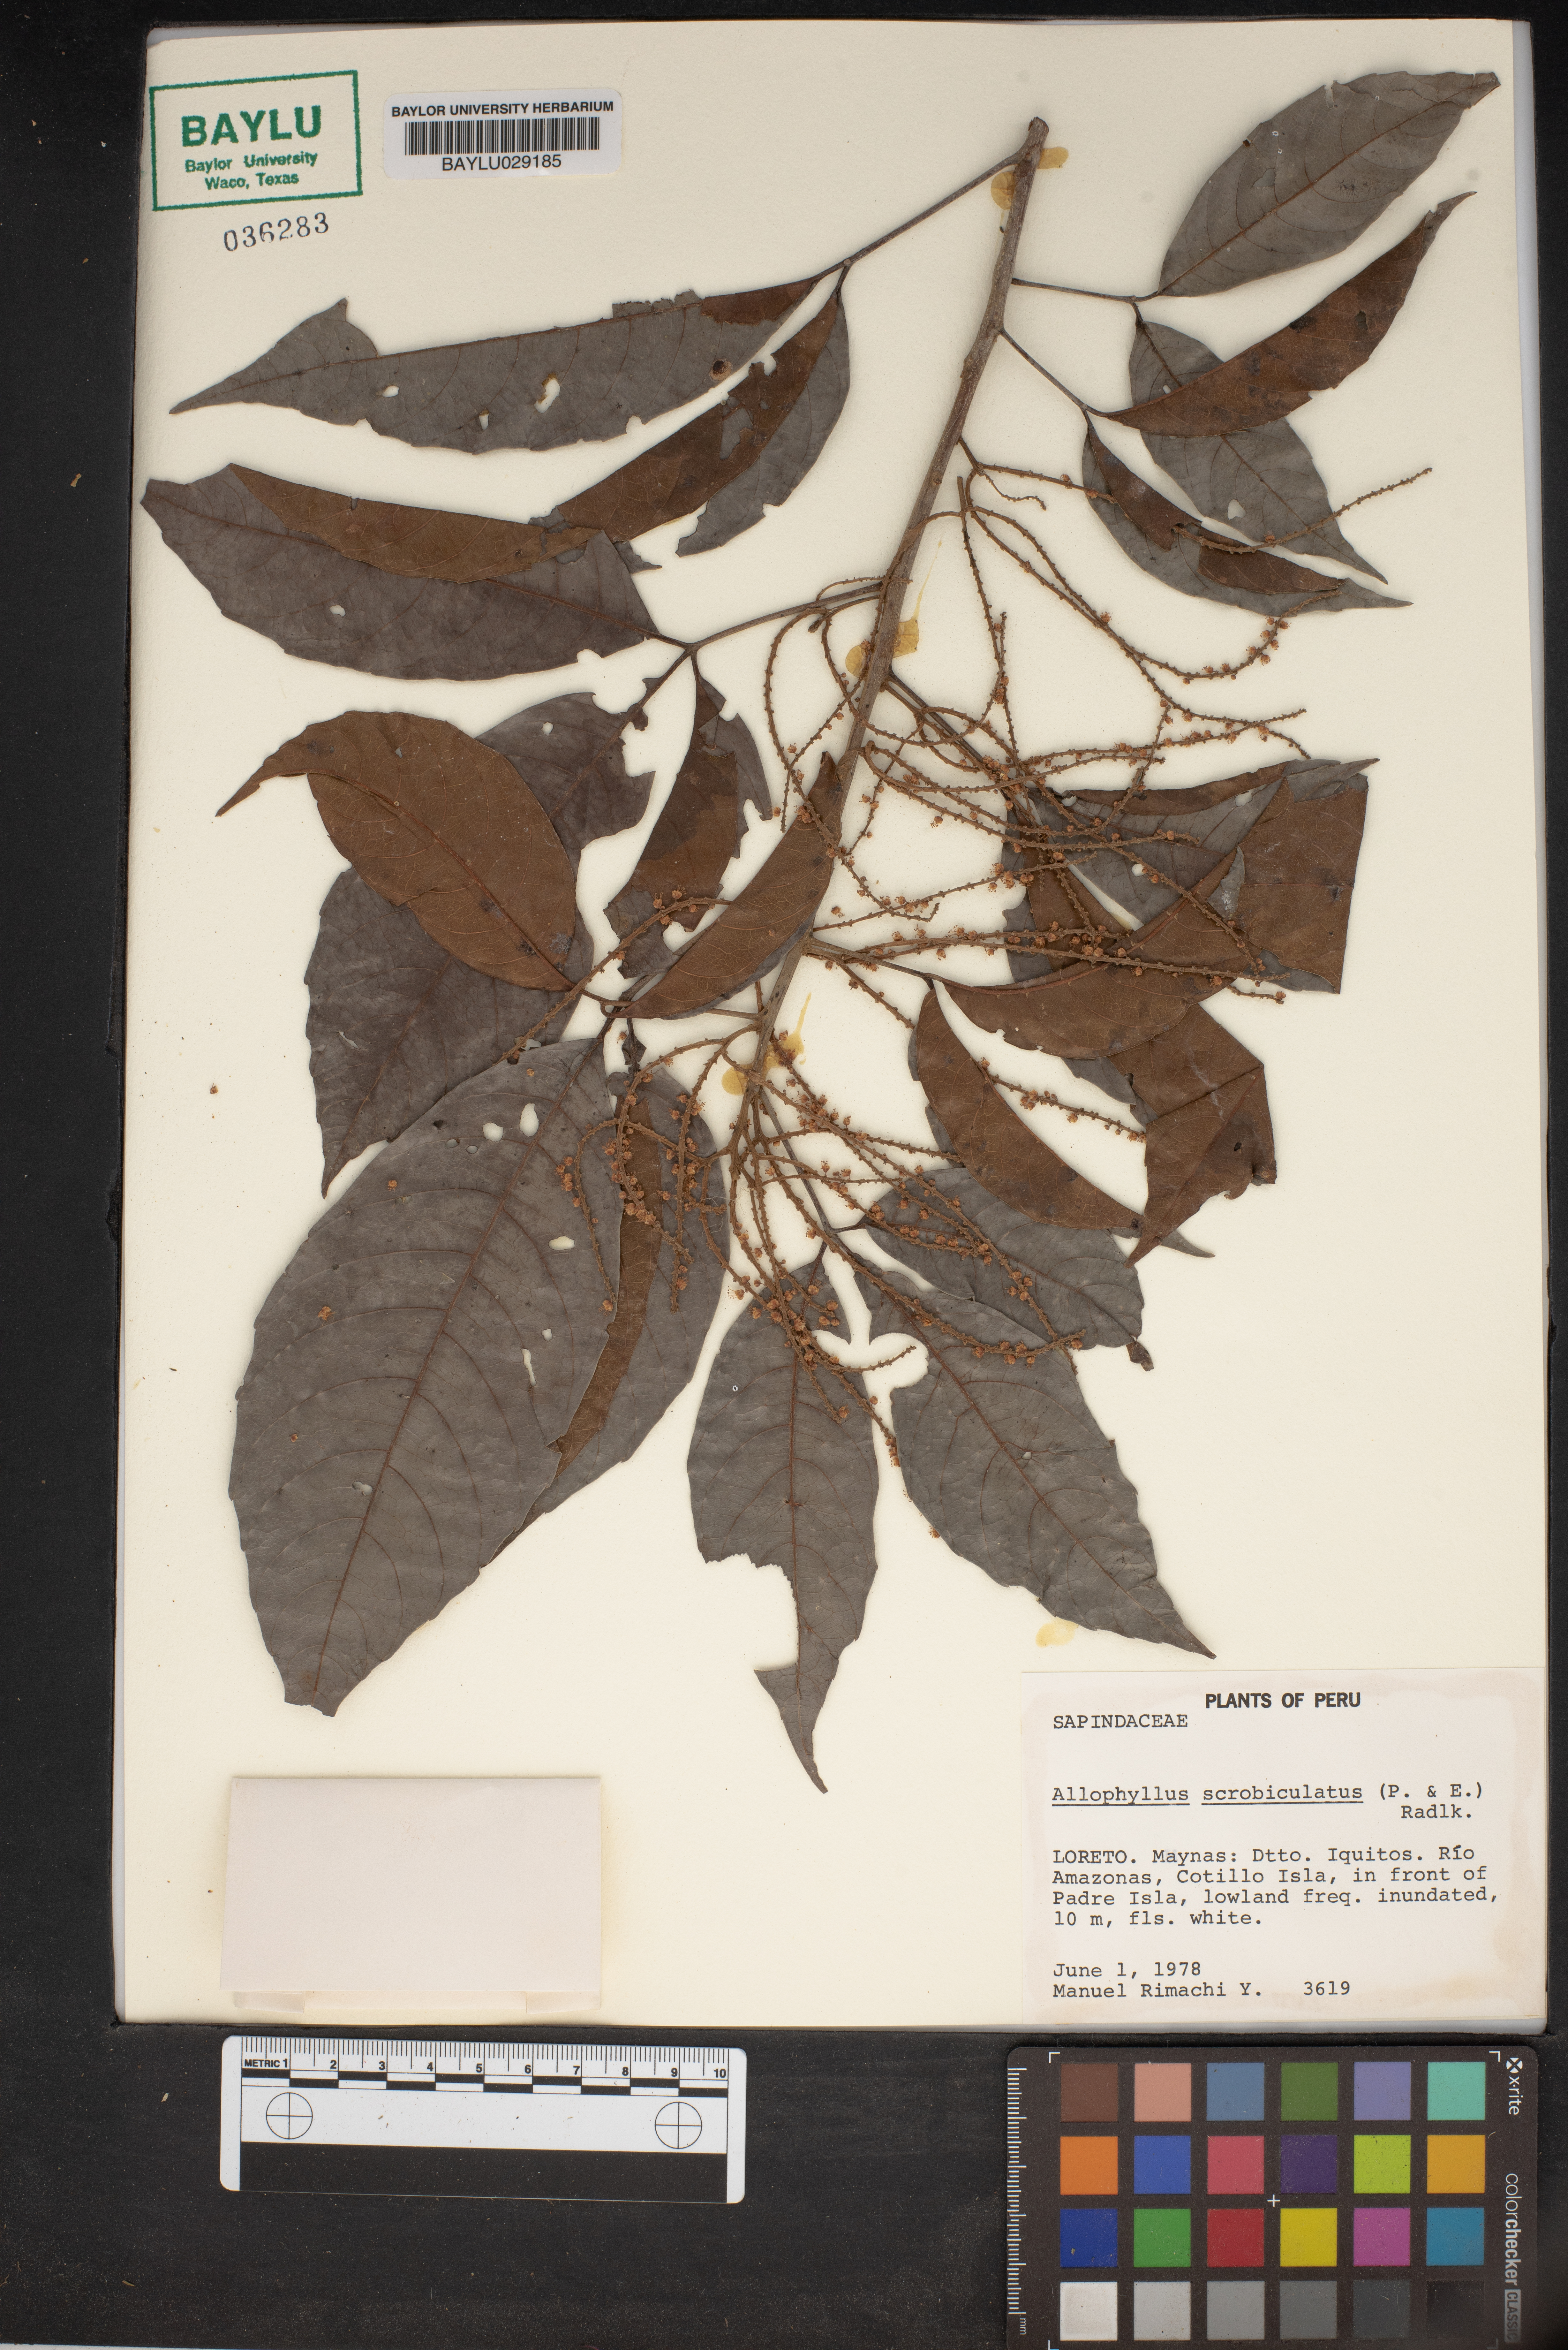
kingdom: Plantae
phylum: Tracheophyta
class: Magnoliopsida
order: Sapindales
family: Sapindaceae
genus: Allophylus
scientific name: Allophylus scrobiculatus
